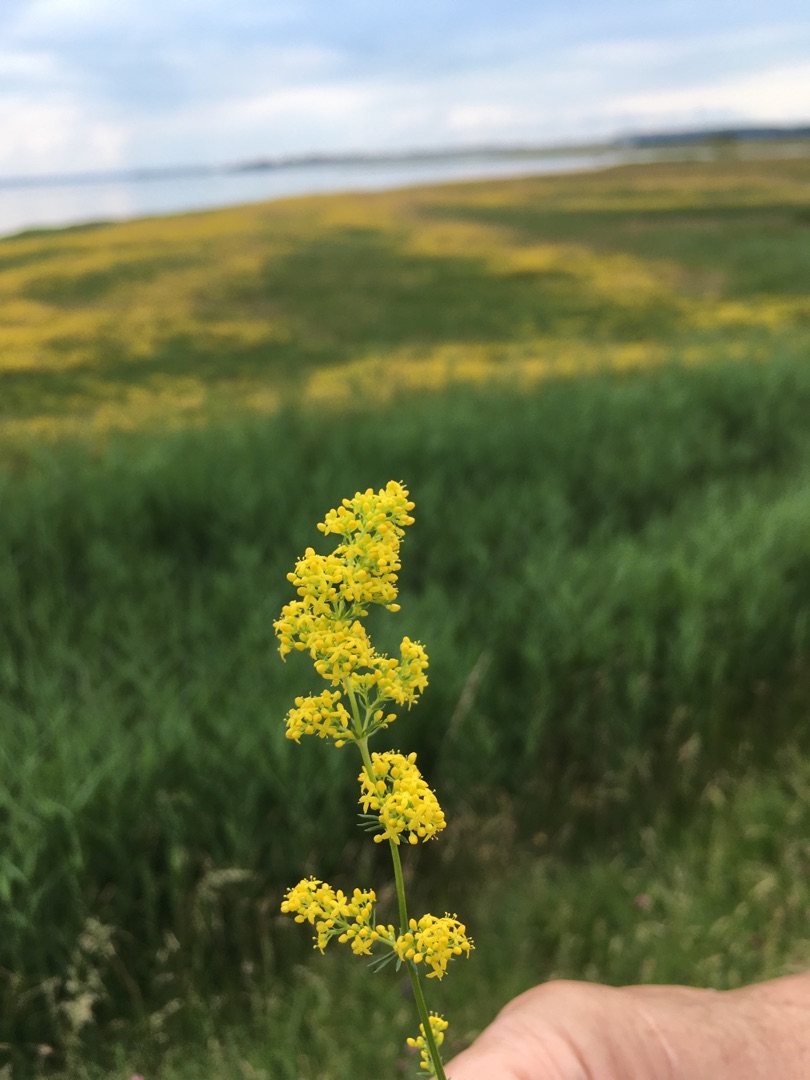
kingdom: Plantae
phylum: Tracheophyta
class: Magnoliopsida
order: Gentianales
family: Rubiaceae
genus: Galium
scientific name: Galium verum
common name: Gul snerre
